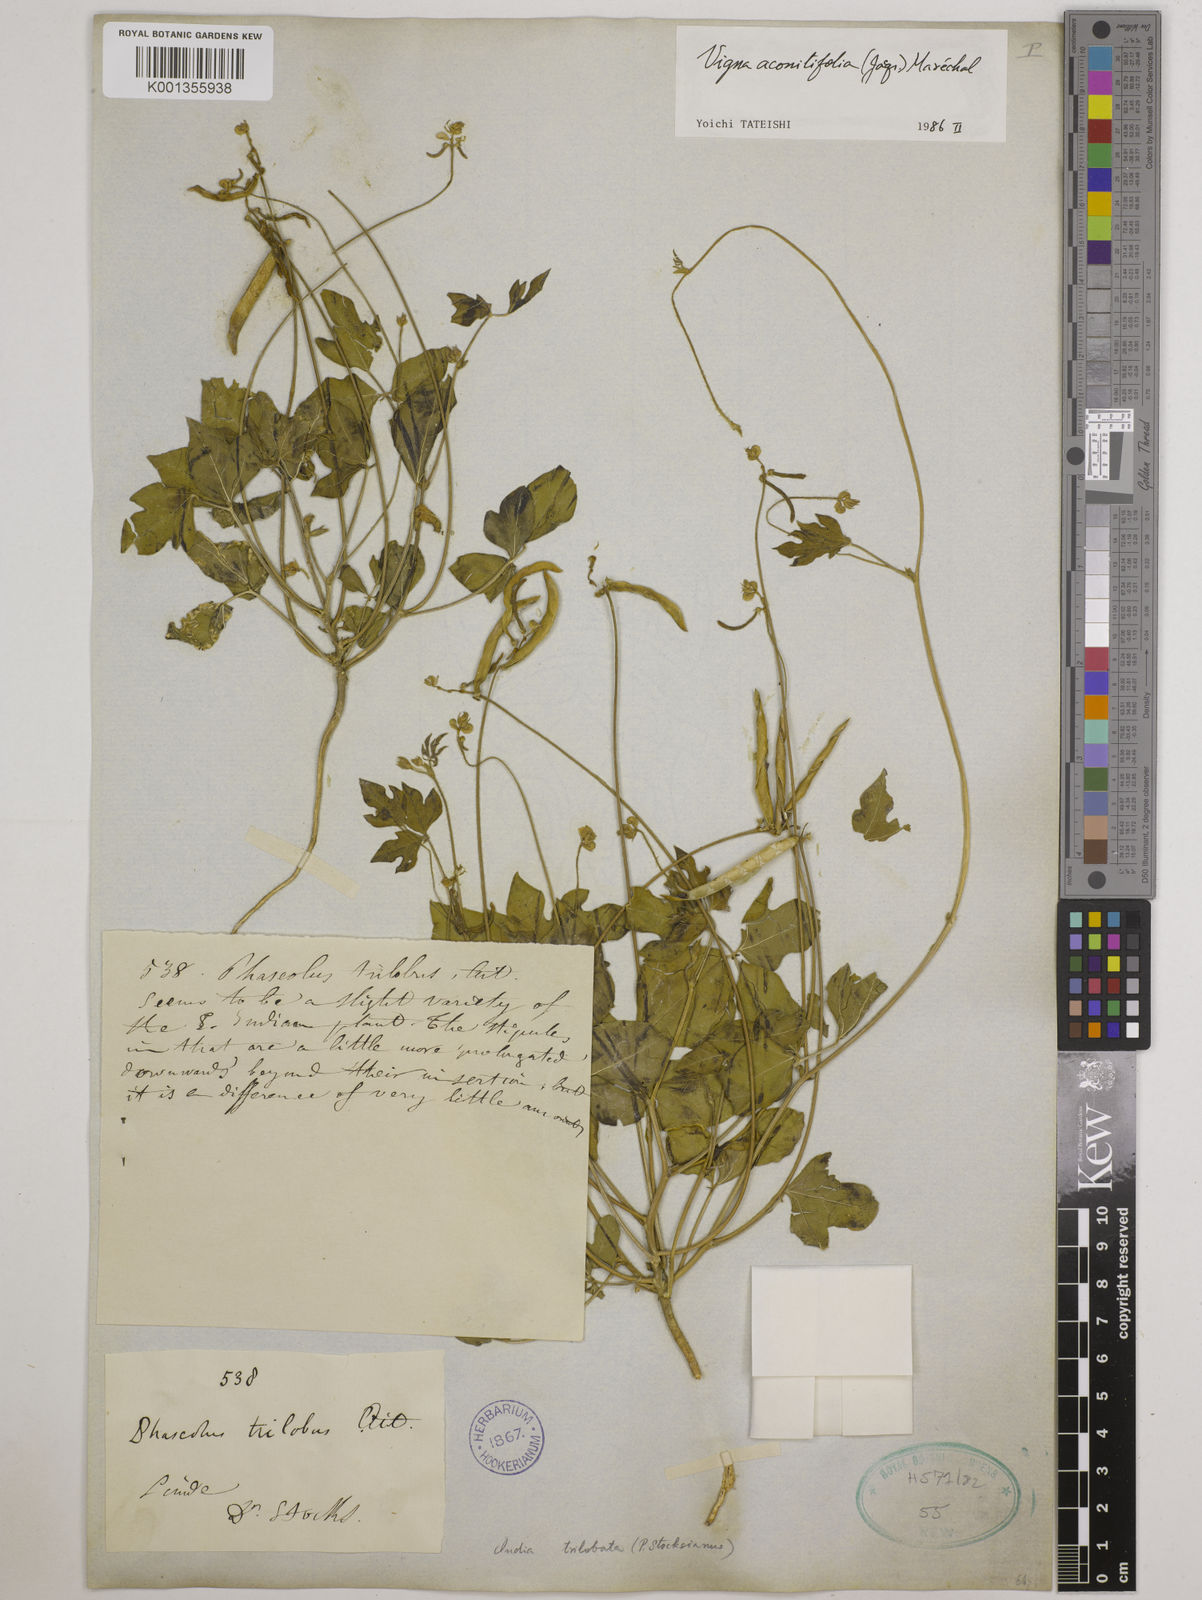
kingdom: Plantae
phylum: Tracheophyta
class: Magnoliopsida
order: Fabales
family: Fabaceae
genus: Vigna
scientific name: Vigna aconitifolia
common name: Dew bean
